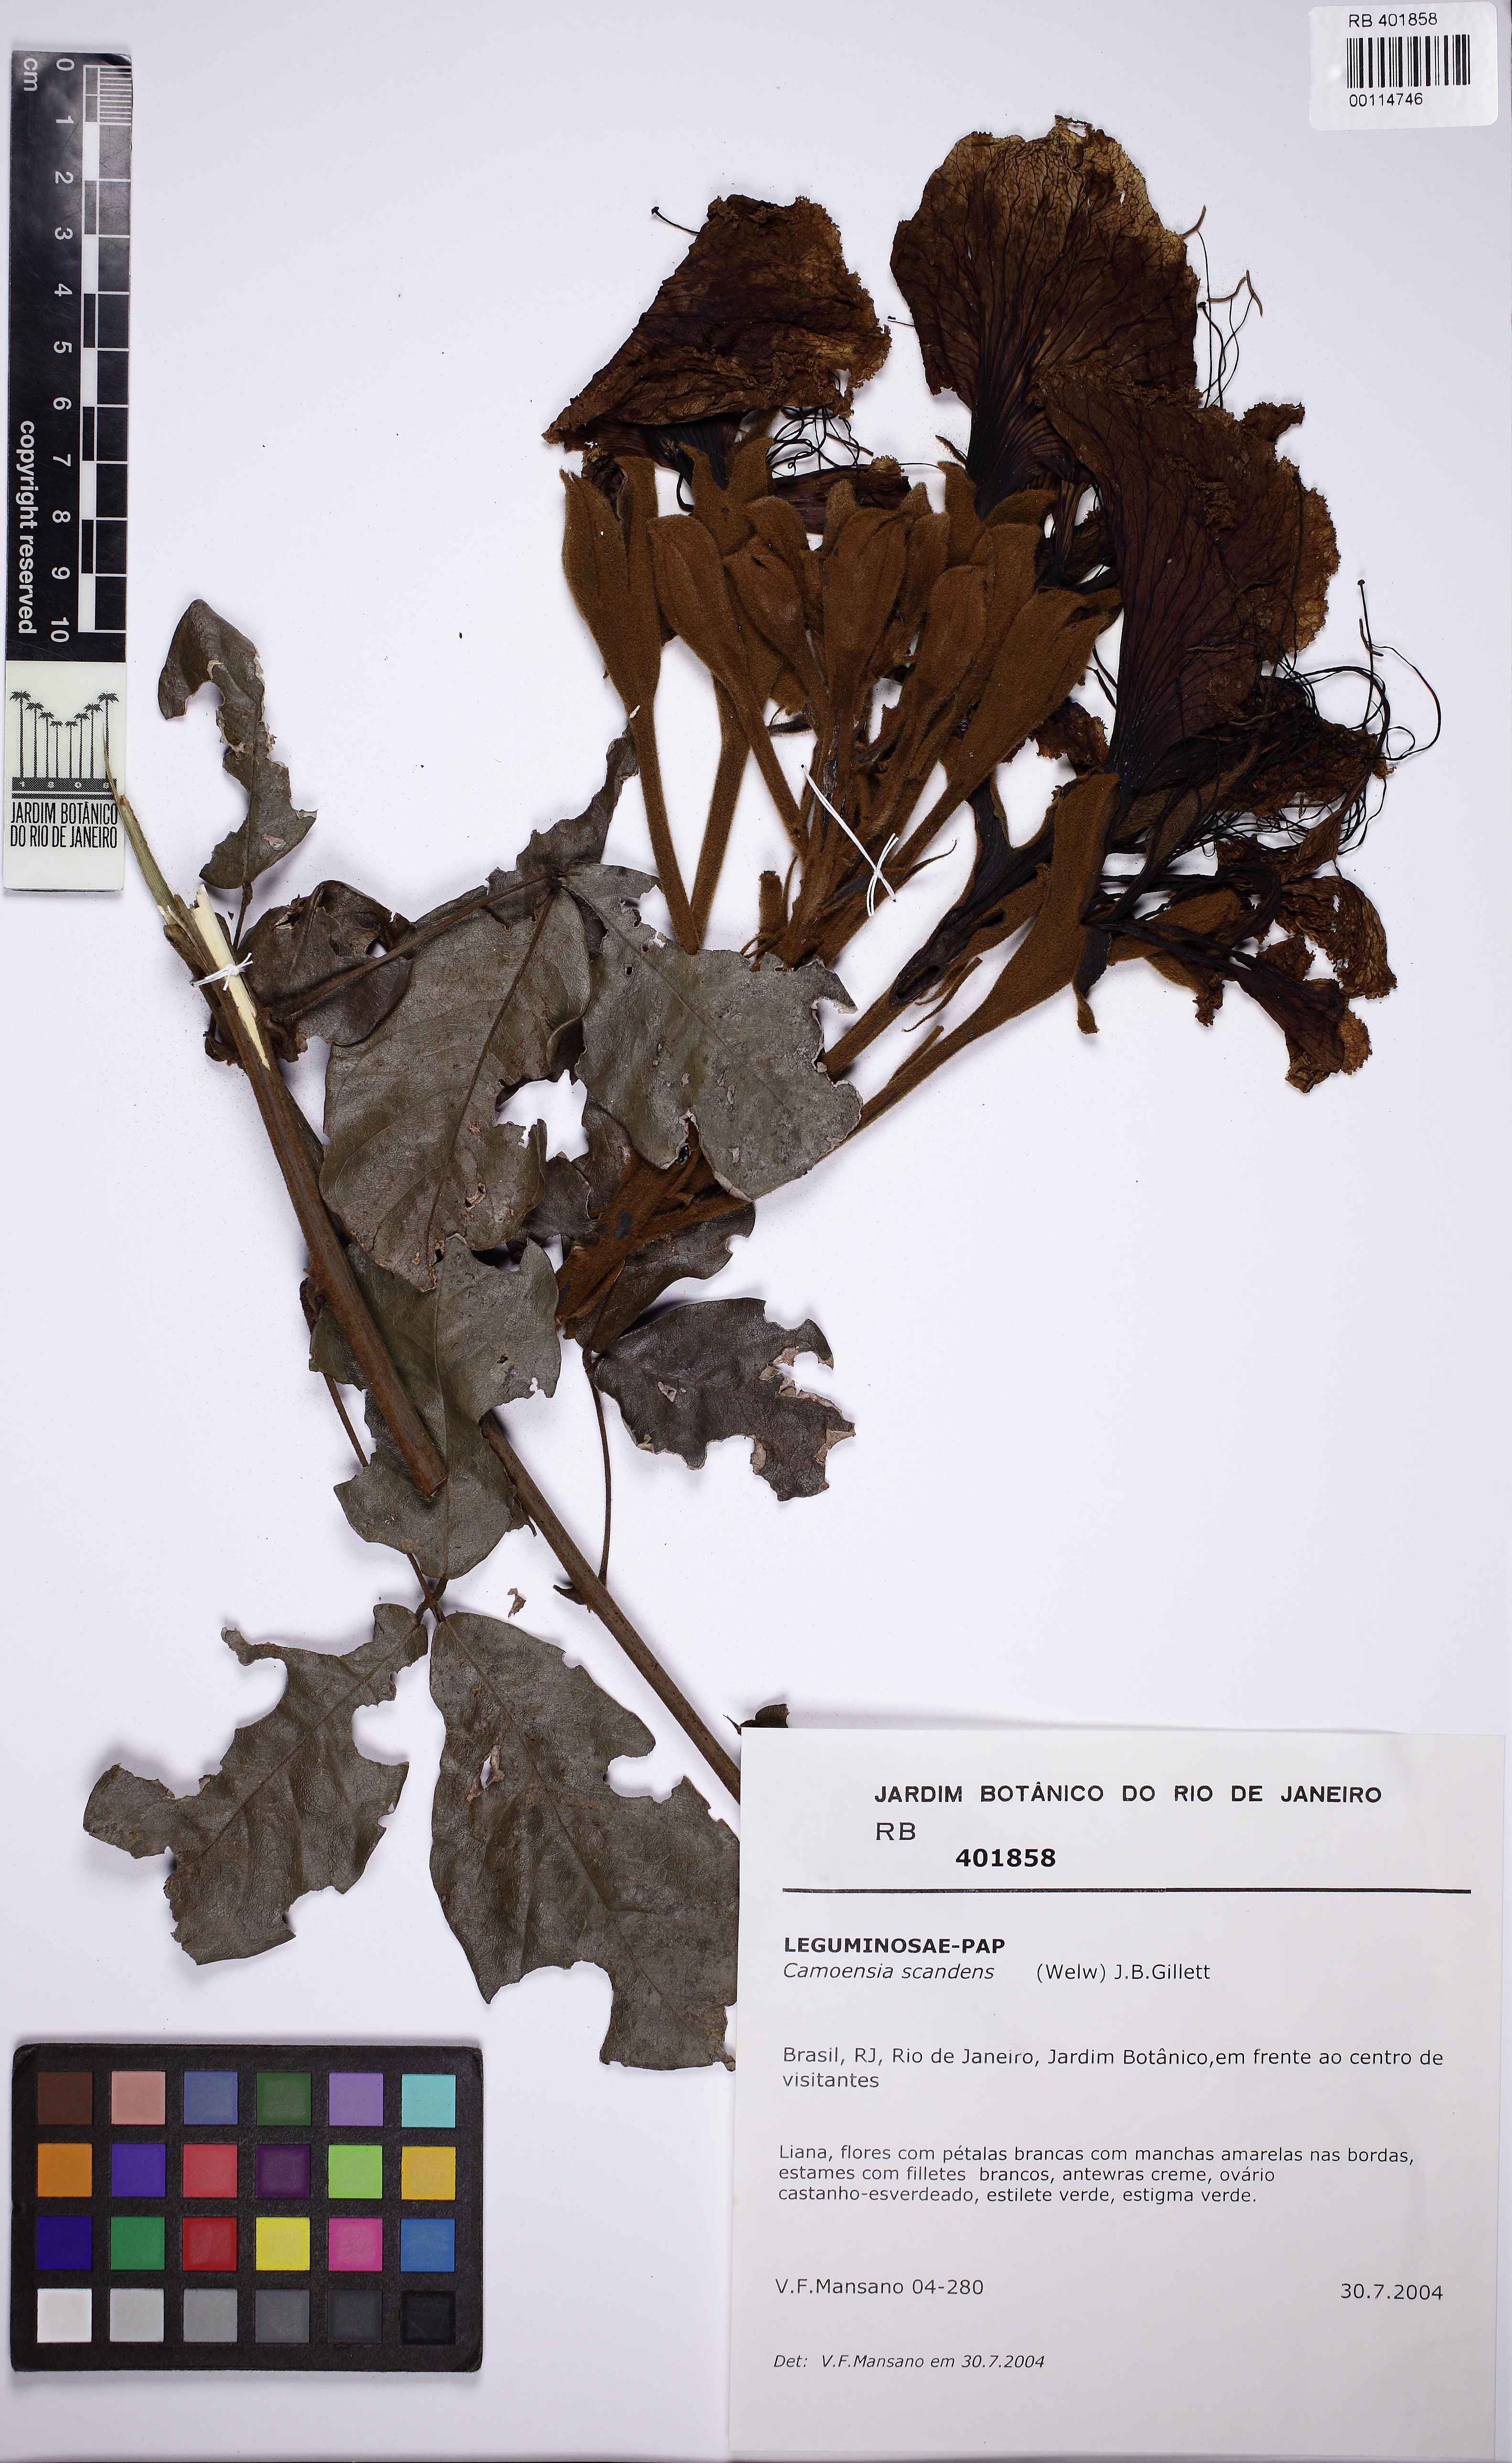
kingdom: Plantae
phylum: Tracheophyta
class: Magnoliopsida
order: Fabales
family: Fabaceae
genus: Camoensia
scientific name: Camoensia scandens
